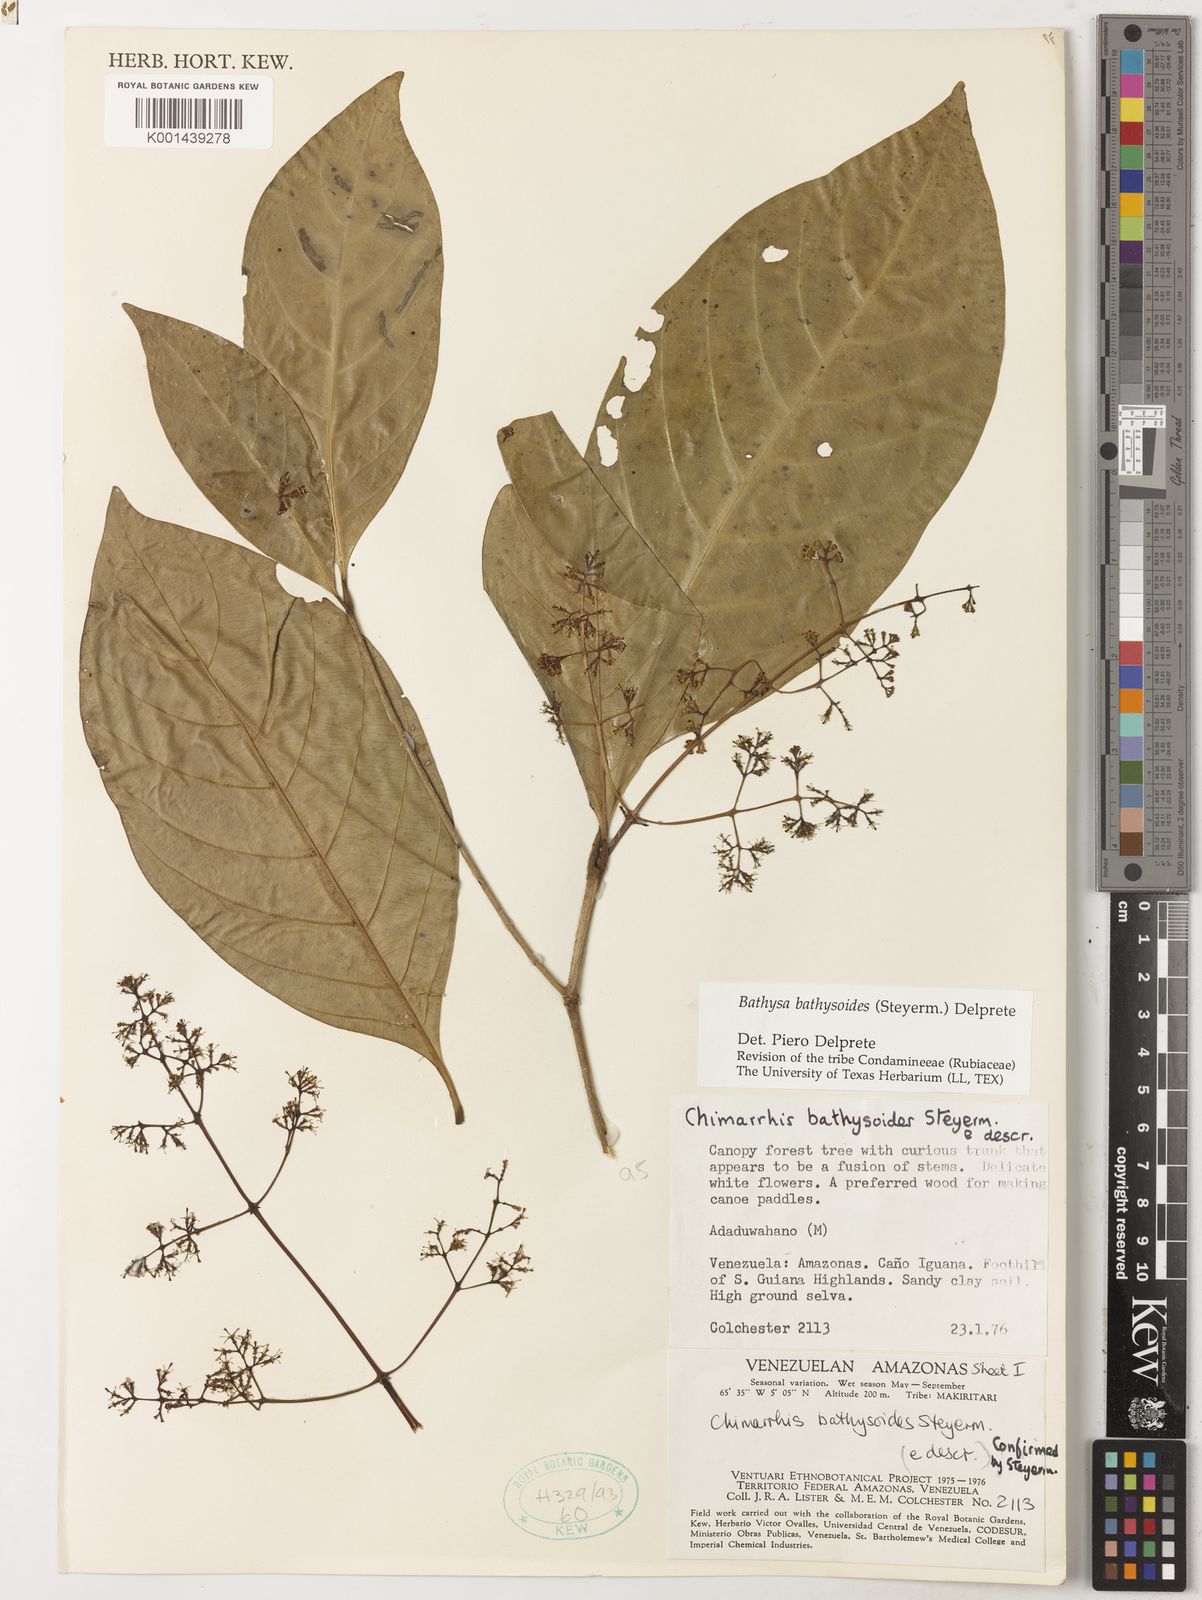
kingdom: Plantae
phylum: Tracheophyta
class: Magnoliopsida
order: Gentianales
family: Rubiaceae
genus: Bathysa
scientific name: Bathysa bathysoides
